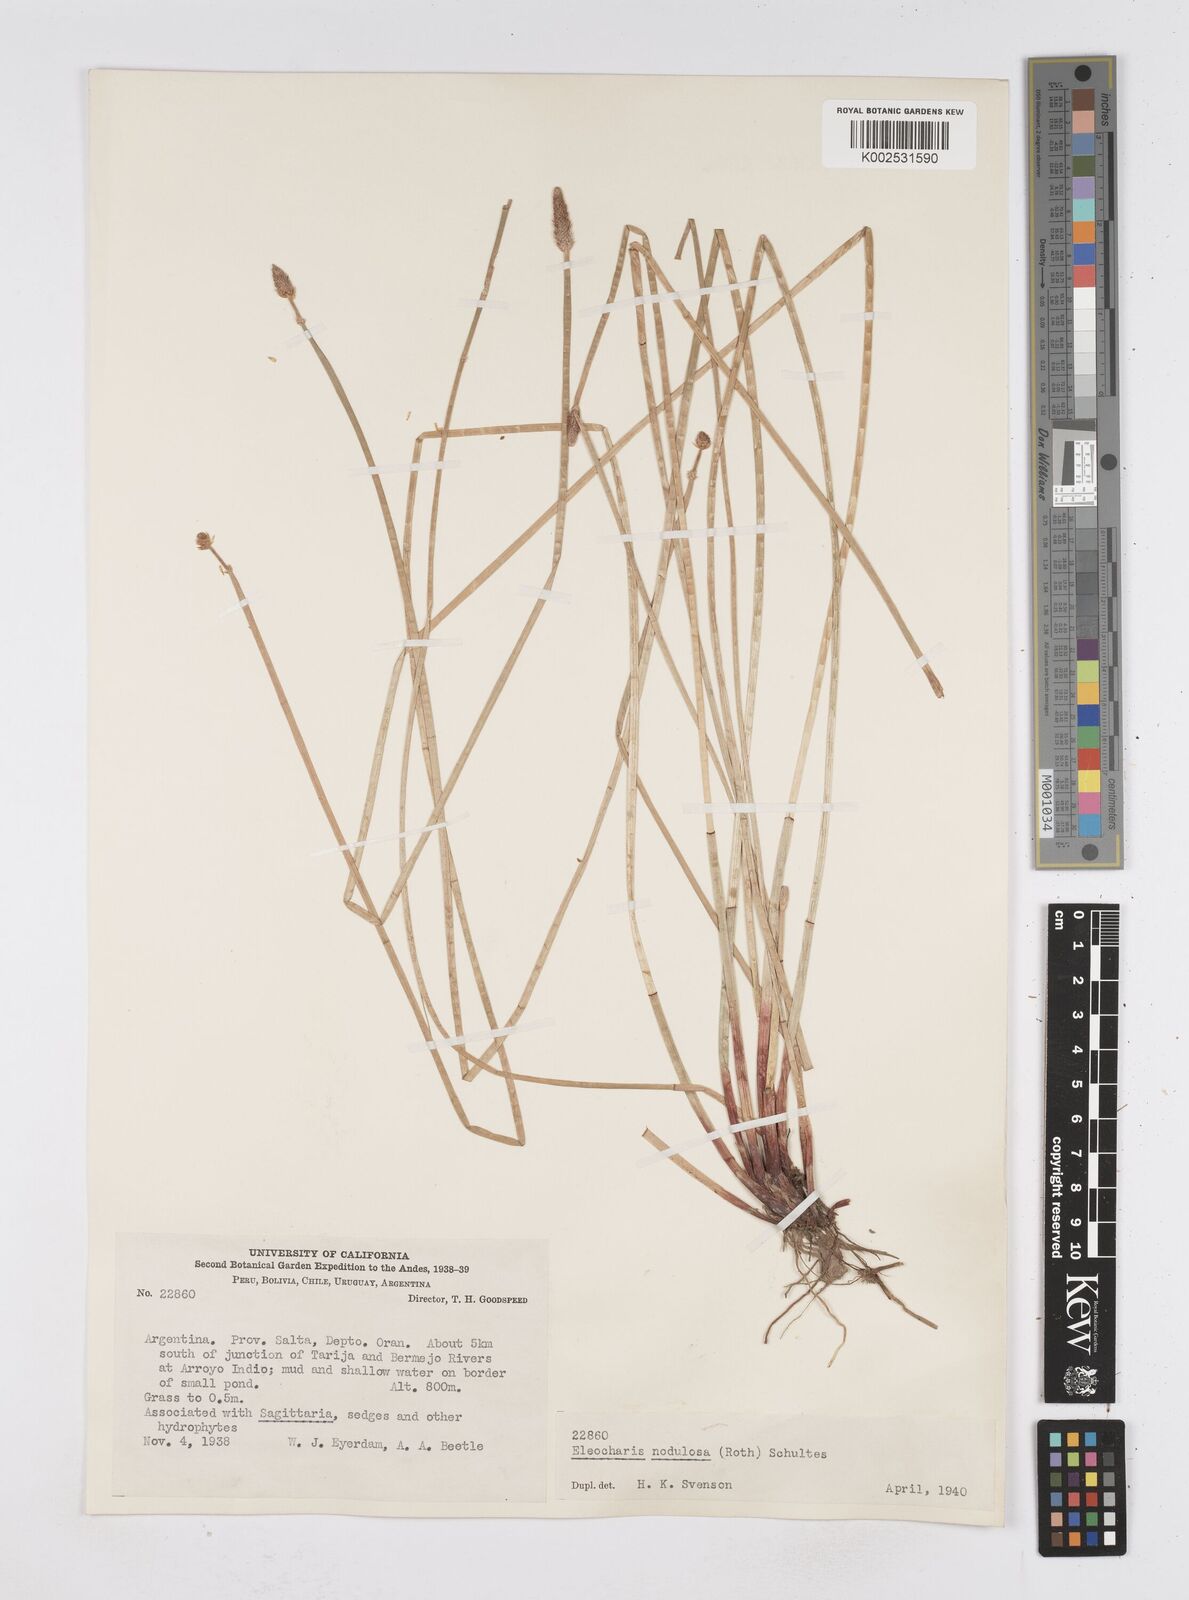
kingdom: Plantae
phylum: Tracheophyta
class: Liliopsida
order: Poales
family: Cyperaceae
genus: Eleocharis
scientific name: Eleocharis montana
